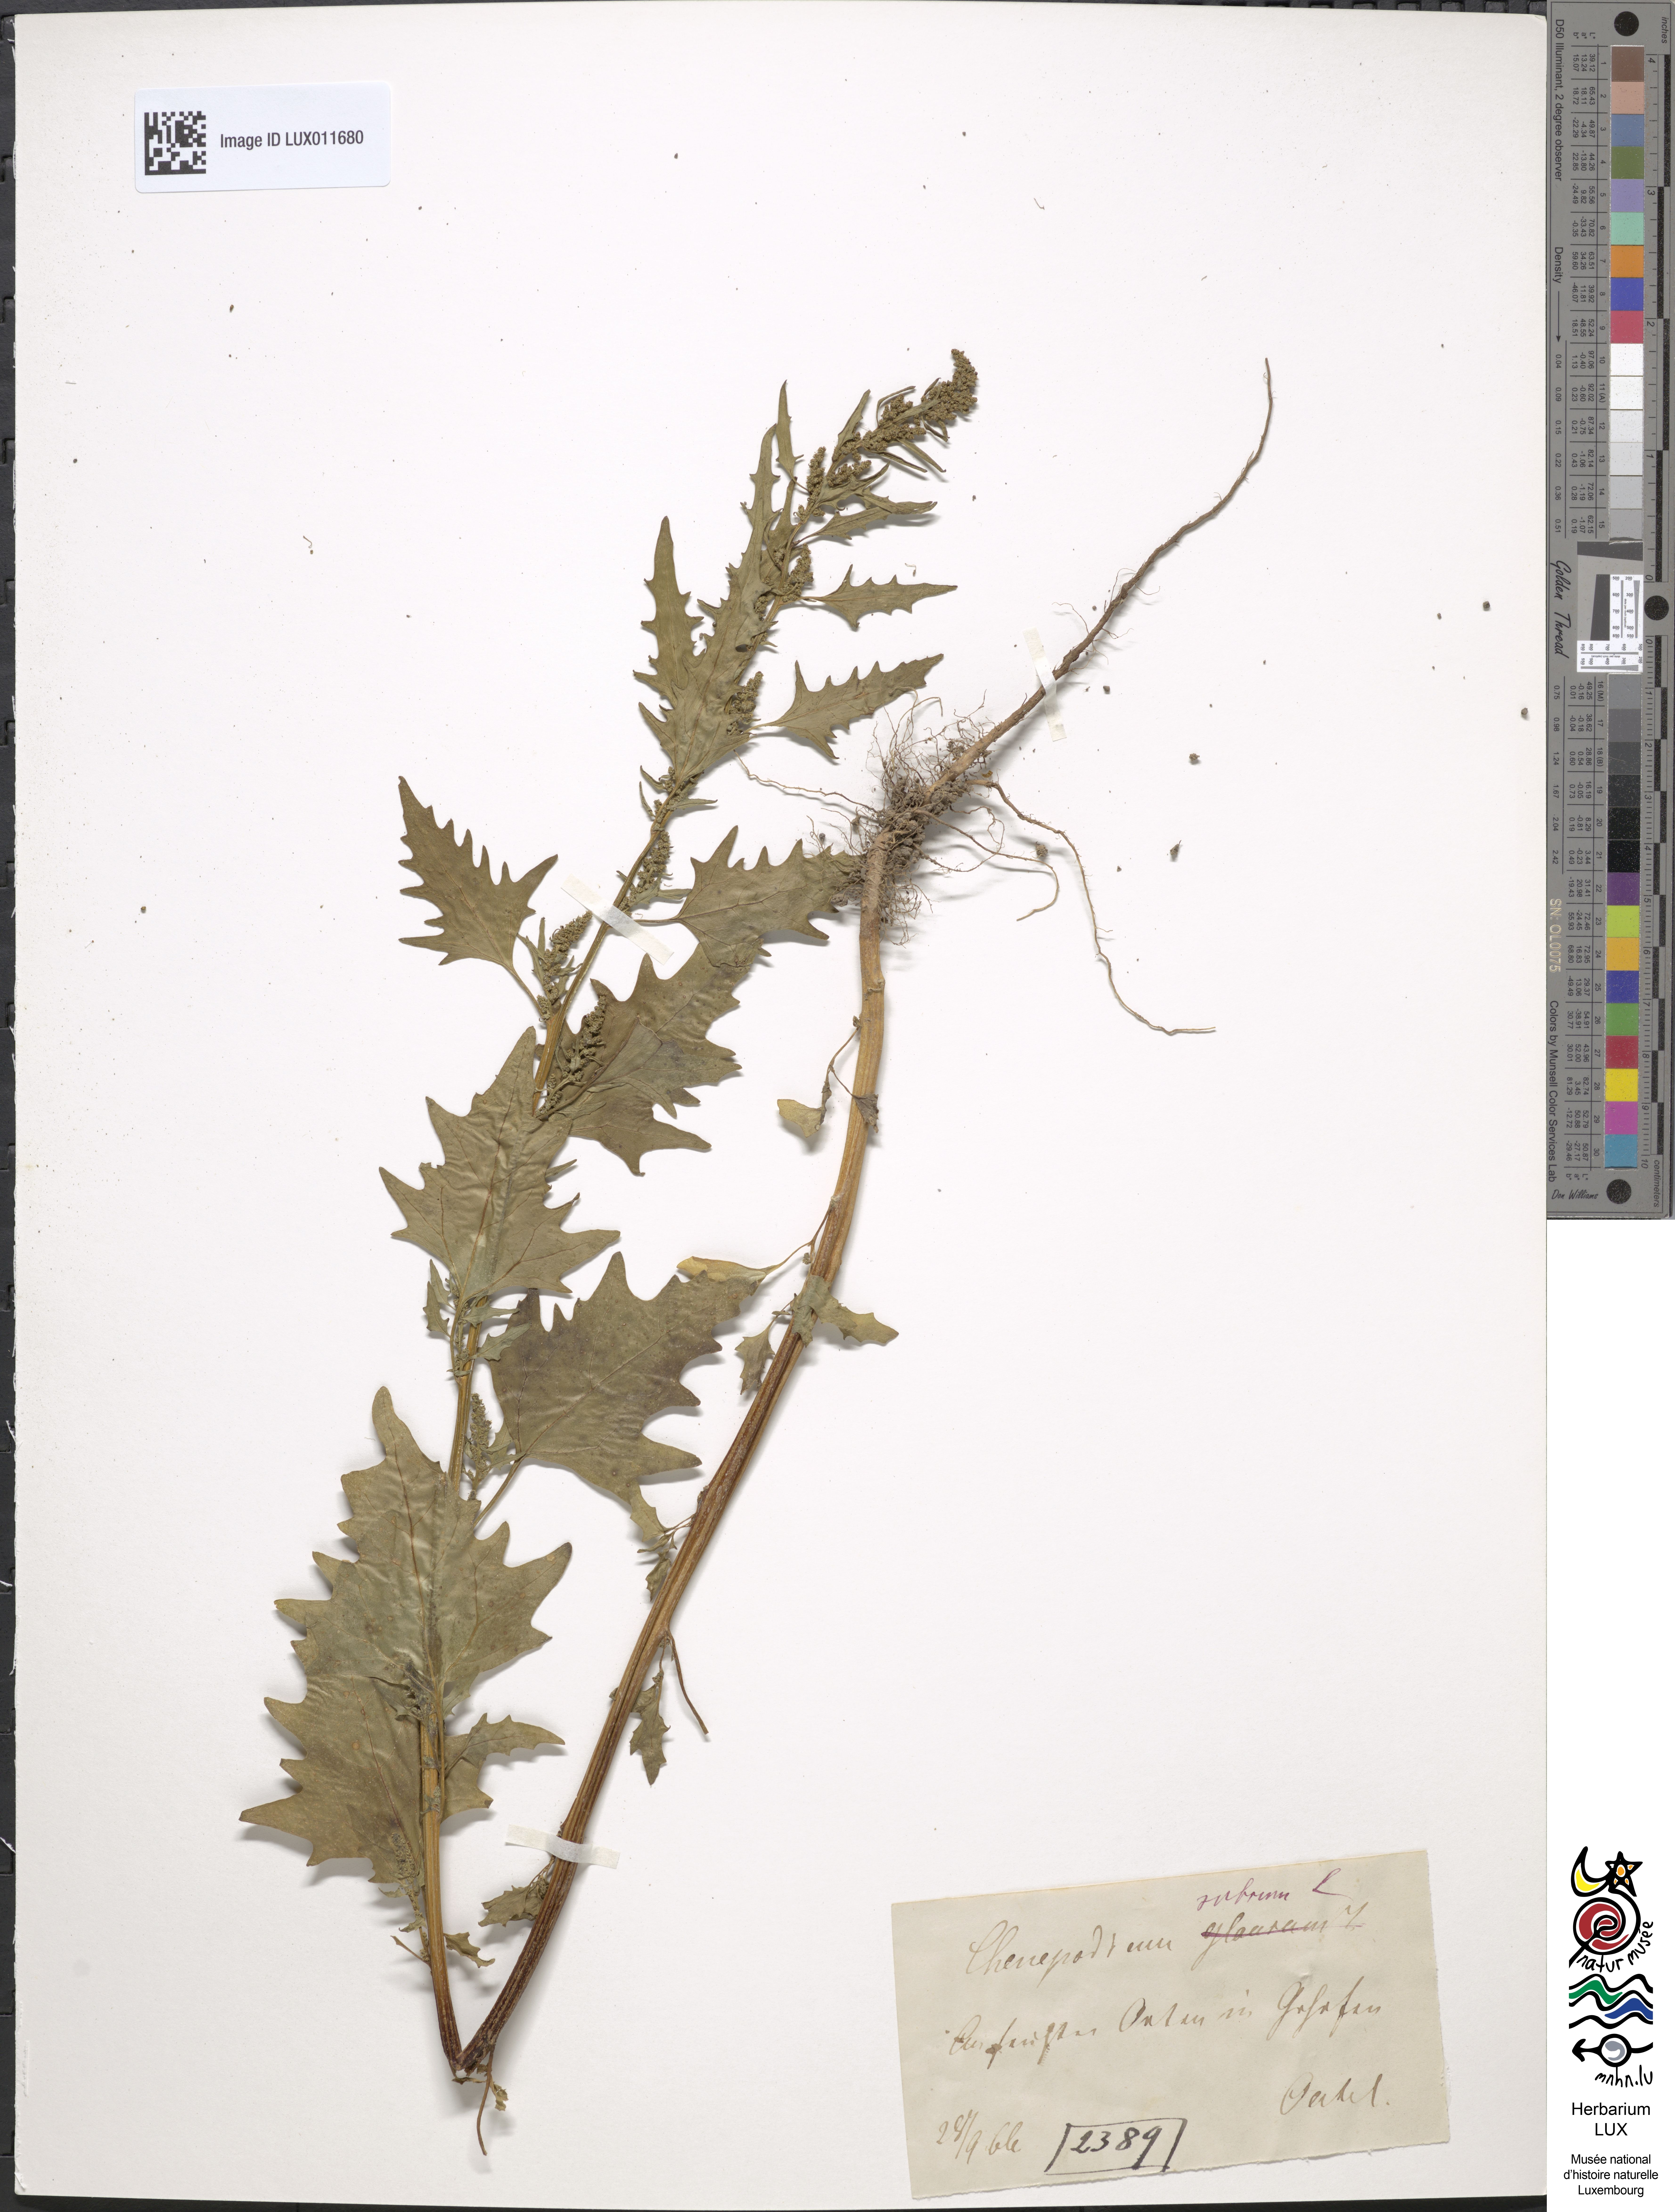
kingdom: Plantae
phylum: Tracheophyta
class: Magnoliopsida
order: Caryophyllales
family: Amaranthaceae
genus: Oxybasis
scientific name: Oxybasis rubra
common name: Red goosefoot
